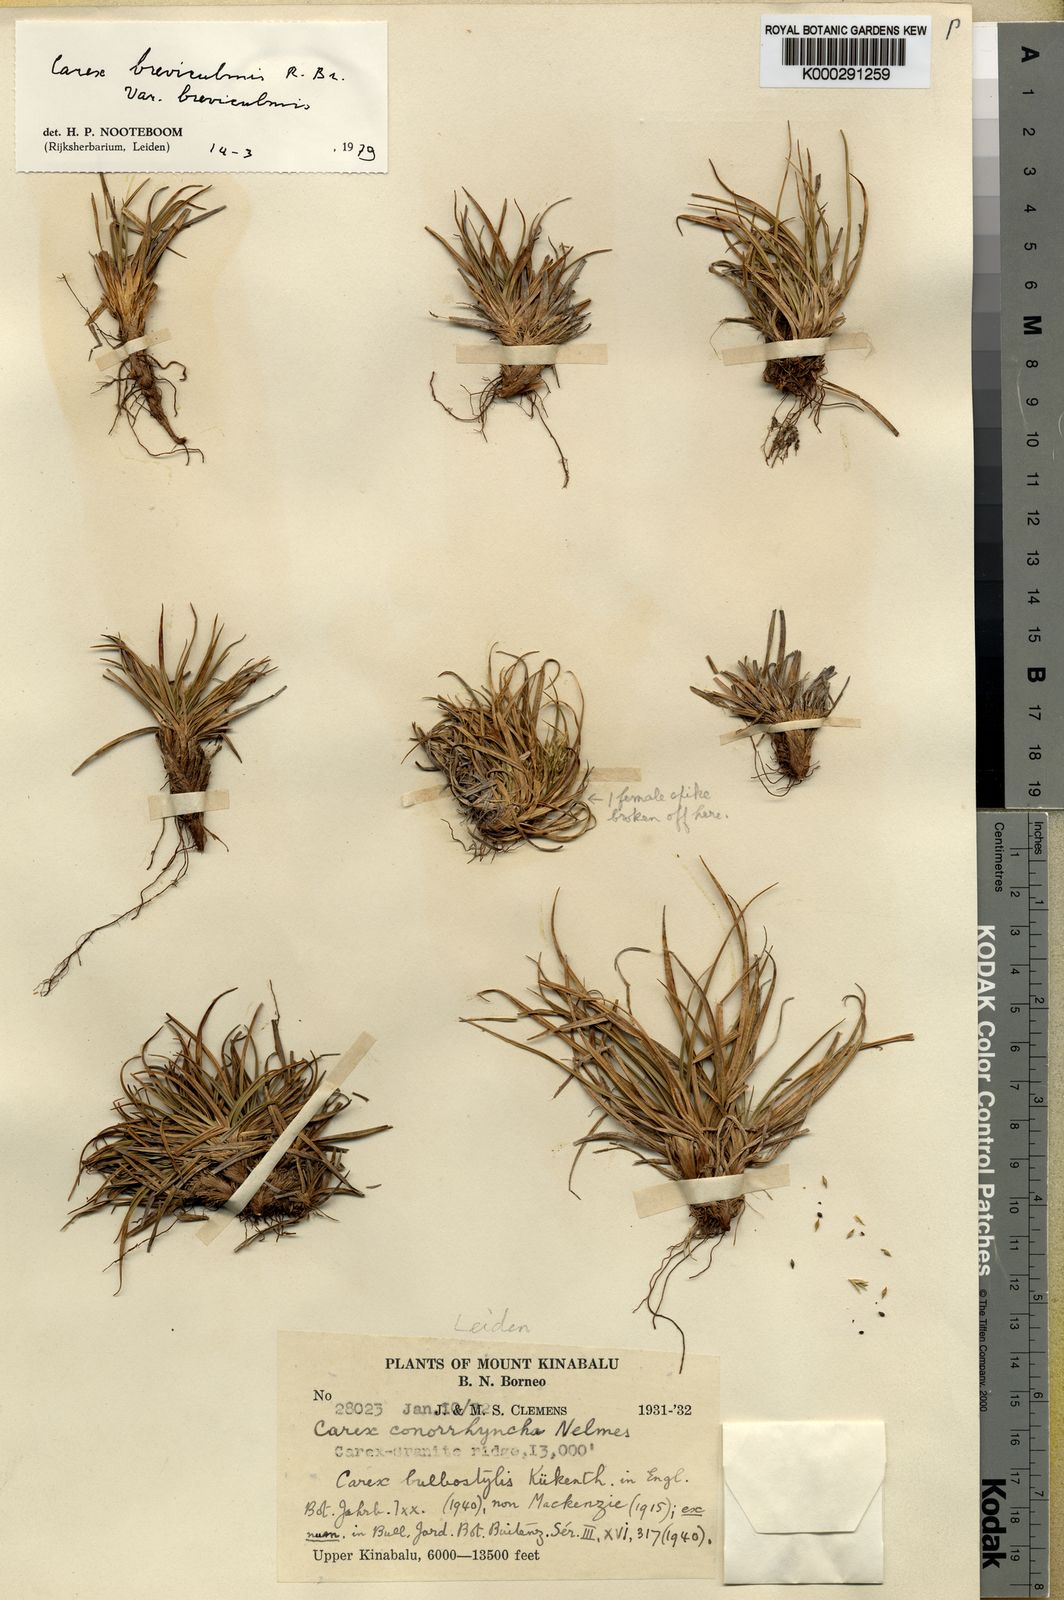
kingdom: Plantae
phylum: Tracheophyta
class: Liliopsida
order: Poales
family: Cyperaceae
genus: Carex
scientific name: Carex breviculmis
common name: Asian shortstem sedge
